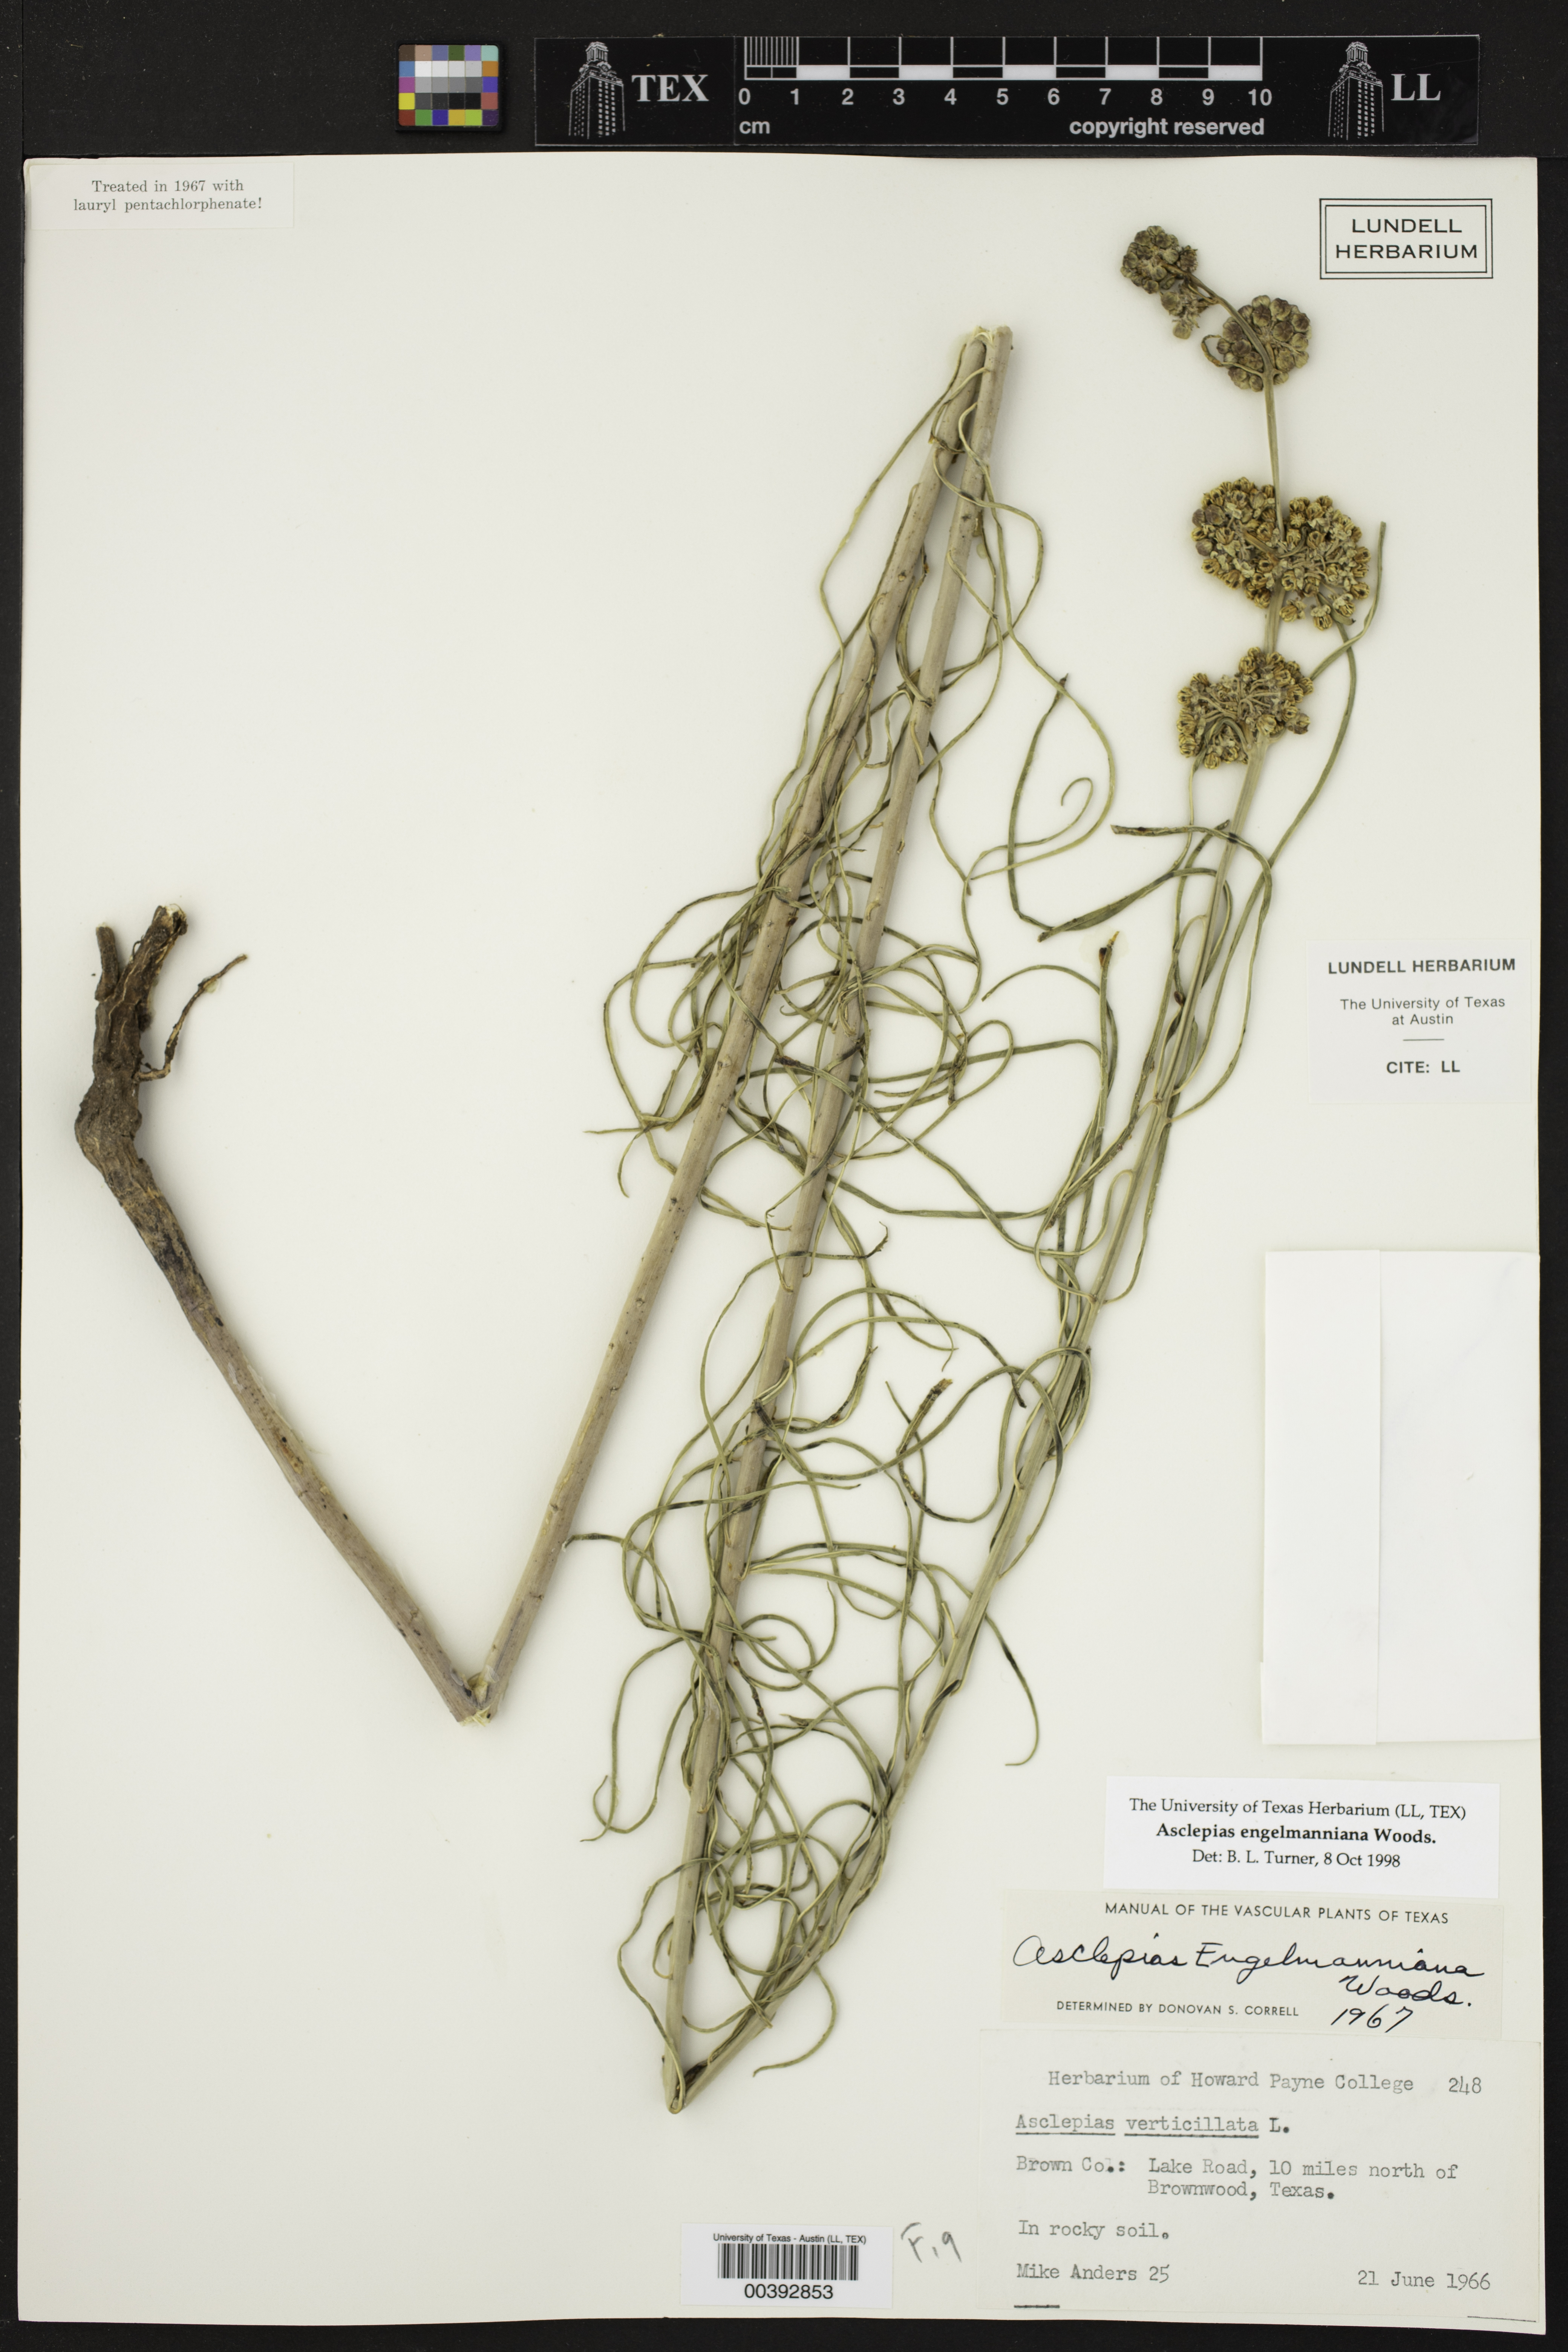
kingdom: Plantae
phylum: Tracheophyta
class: Magnoliopsida
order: Gentianales
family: Apocynaceae
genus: Asclepias
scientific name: Asclepias engelmanniana
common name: Engelmann's milkweed
